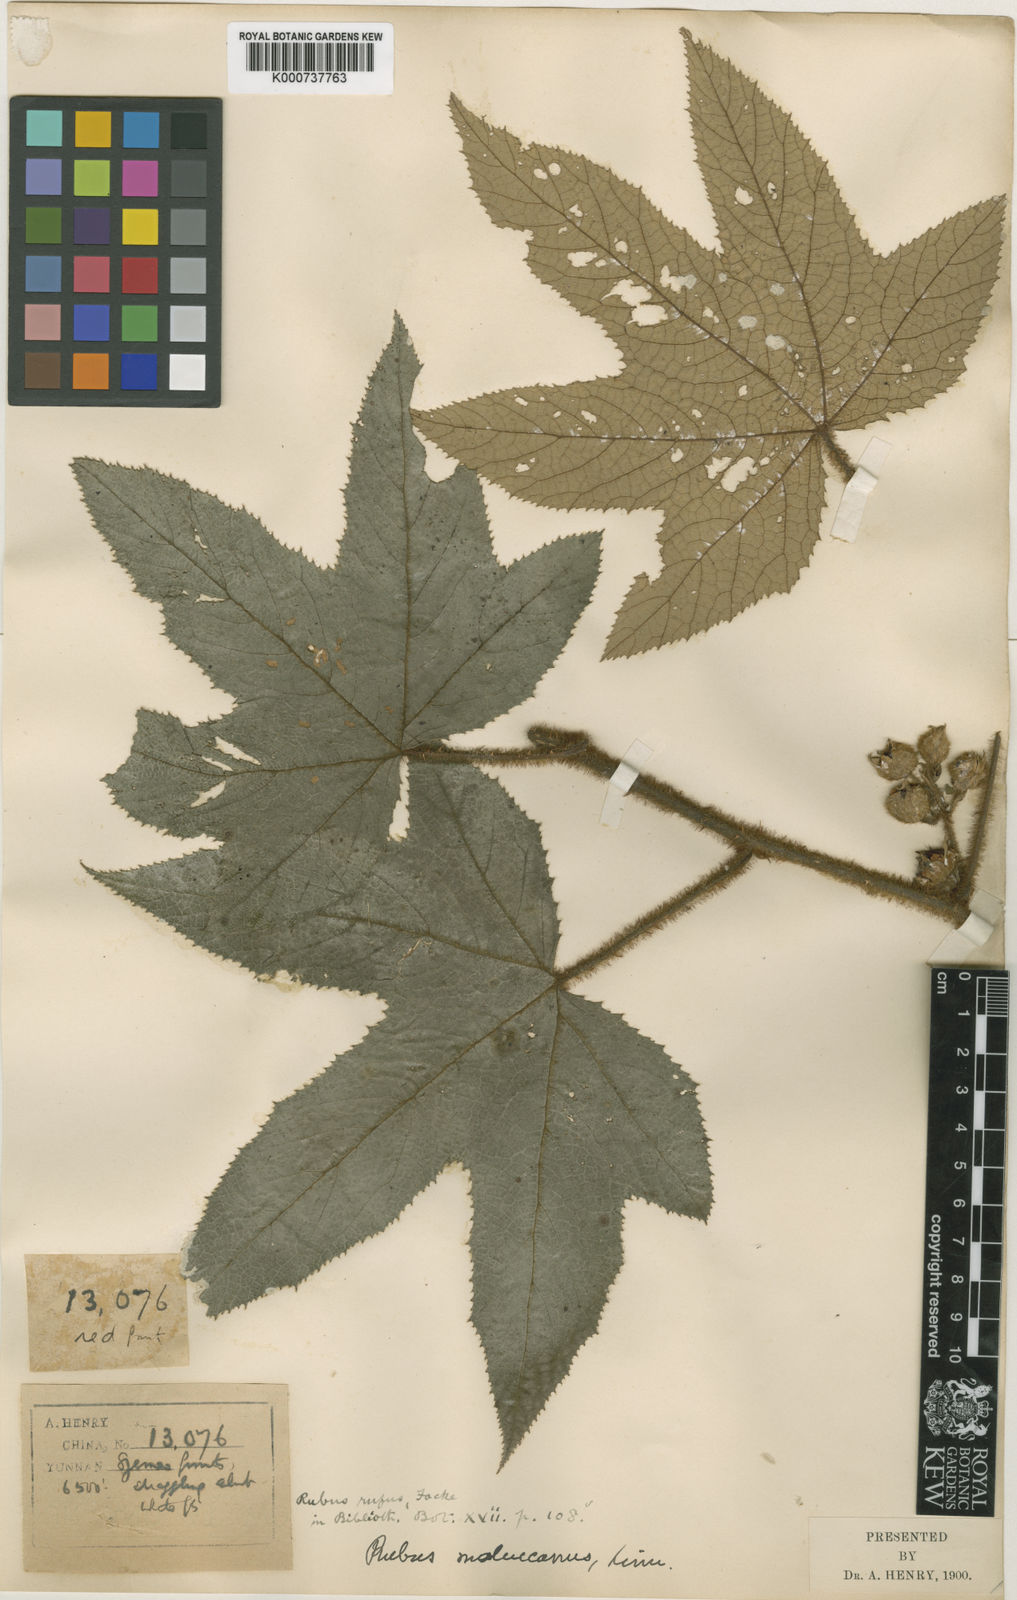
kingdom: Plantae
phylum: Tracheophyta
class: Magnoliopsida
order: Rosales
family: Rosaceae
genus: Rubus
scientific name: Rubus rufus
